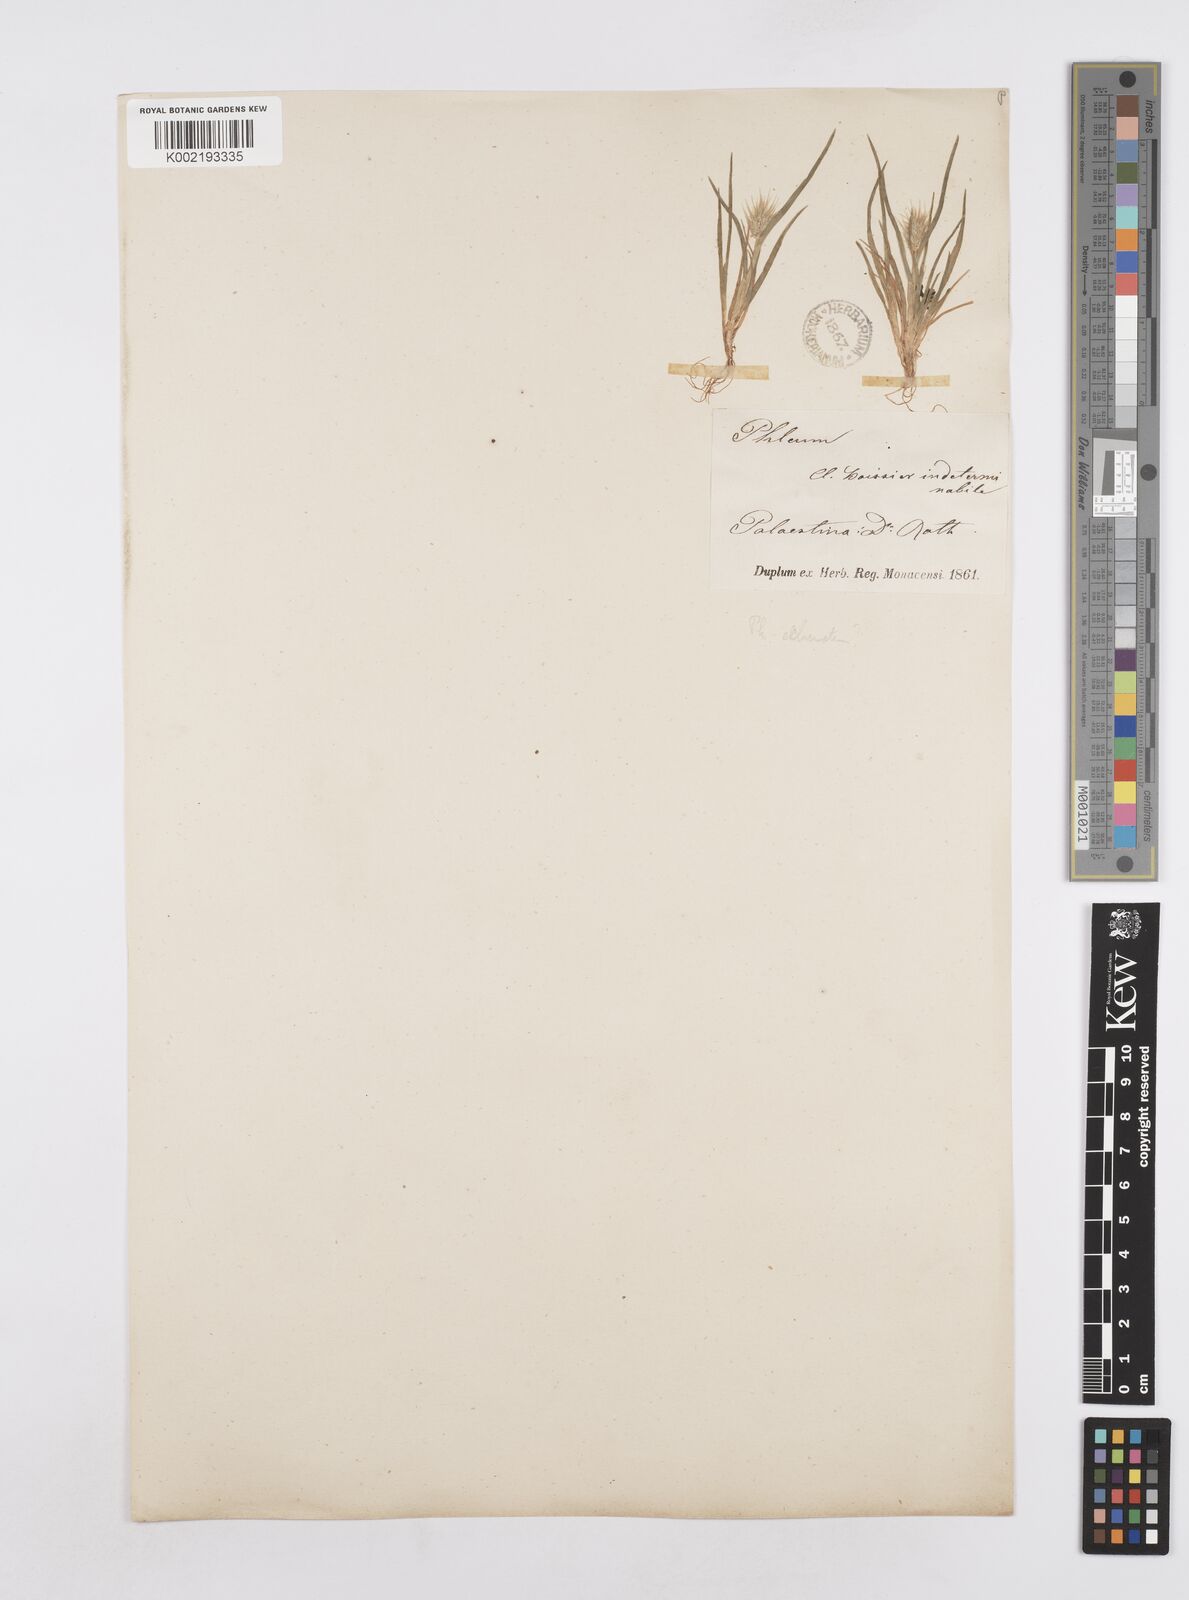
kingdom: Plantae
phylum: Tracheophyta
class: Liliopsida
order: Poales
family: Poaceae
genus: Echinaria
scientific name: Echinaria capitata
